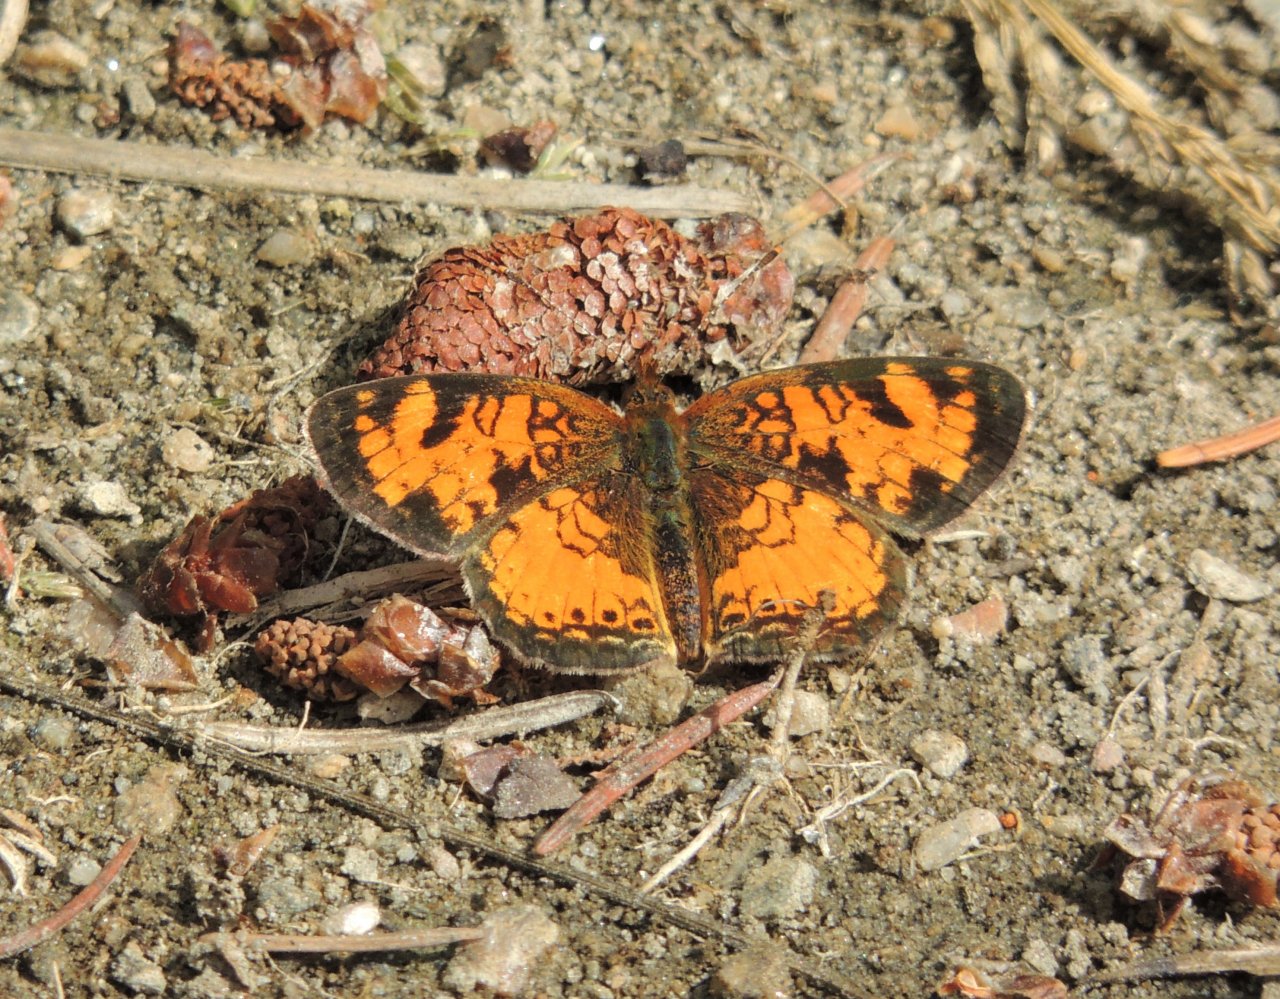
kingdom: Animalia
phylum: Arthropoda
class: Insecta
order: Lepidoptera
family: Nymphalidae
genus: Phyciodes
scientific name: Phyciodes tharos
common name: Northern Crescent
